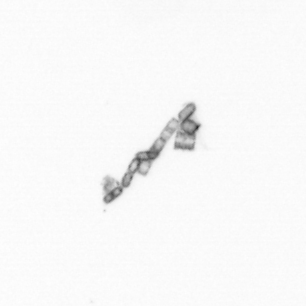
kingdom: Chromista
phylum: Ochrophyta
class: Bacillariophyceae
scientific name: Bacillariophyceae
